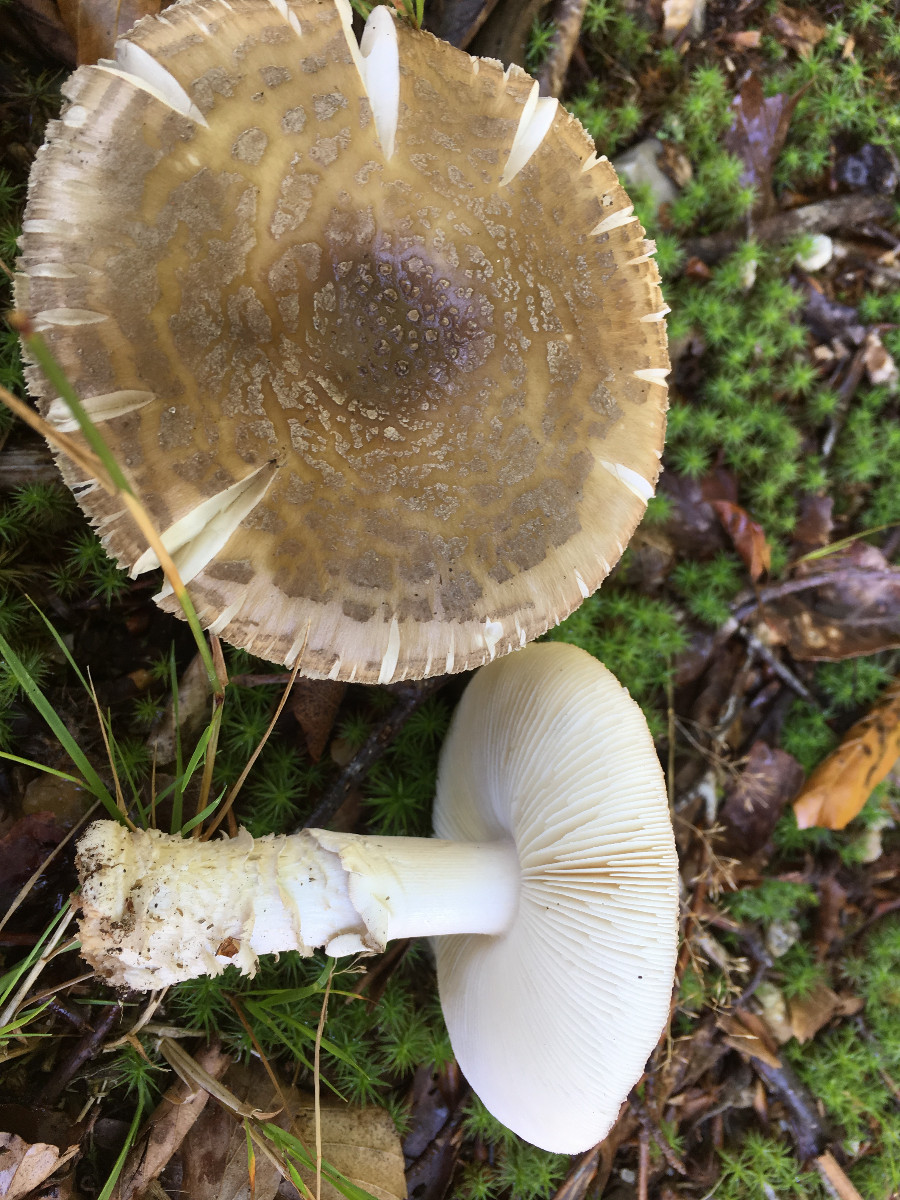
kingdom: Fungi
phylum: Basidiomycota
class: Agaricomycetes
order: Agaricales
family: Amanitaceae
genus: Amanita
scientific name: Amanita rubescens
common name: rødmende fluesvamp
